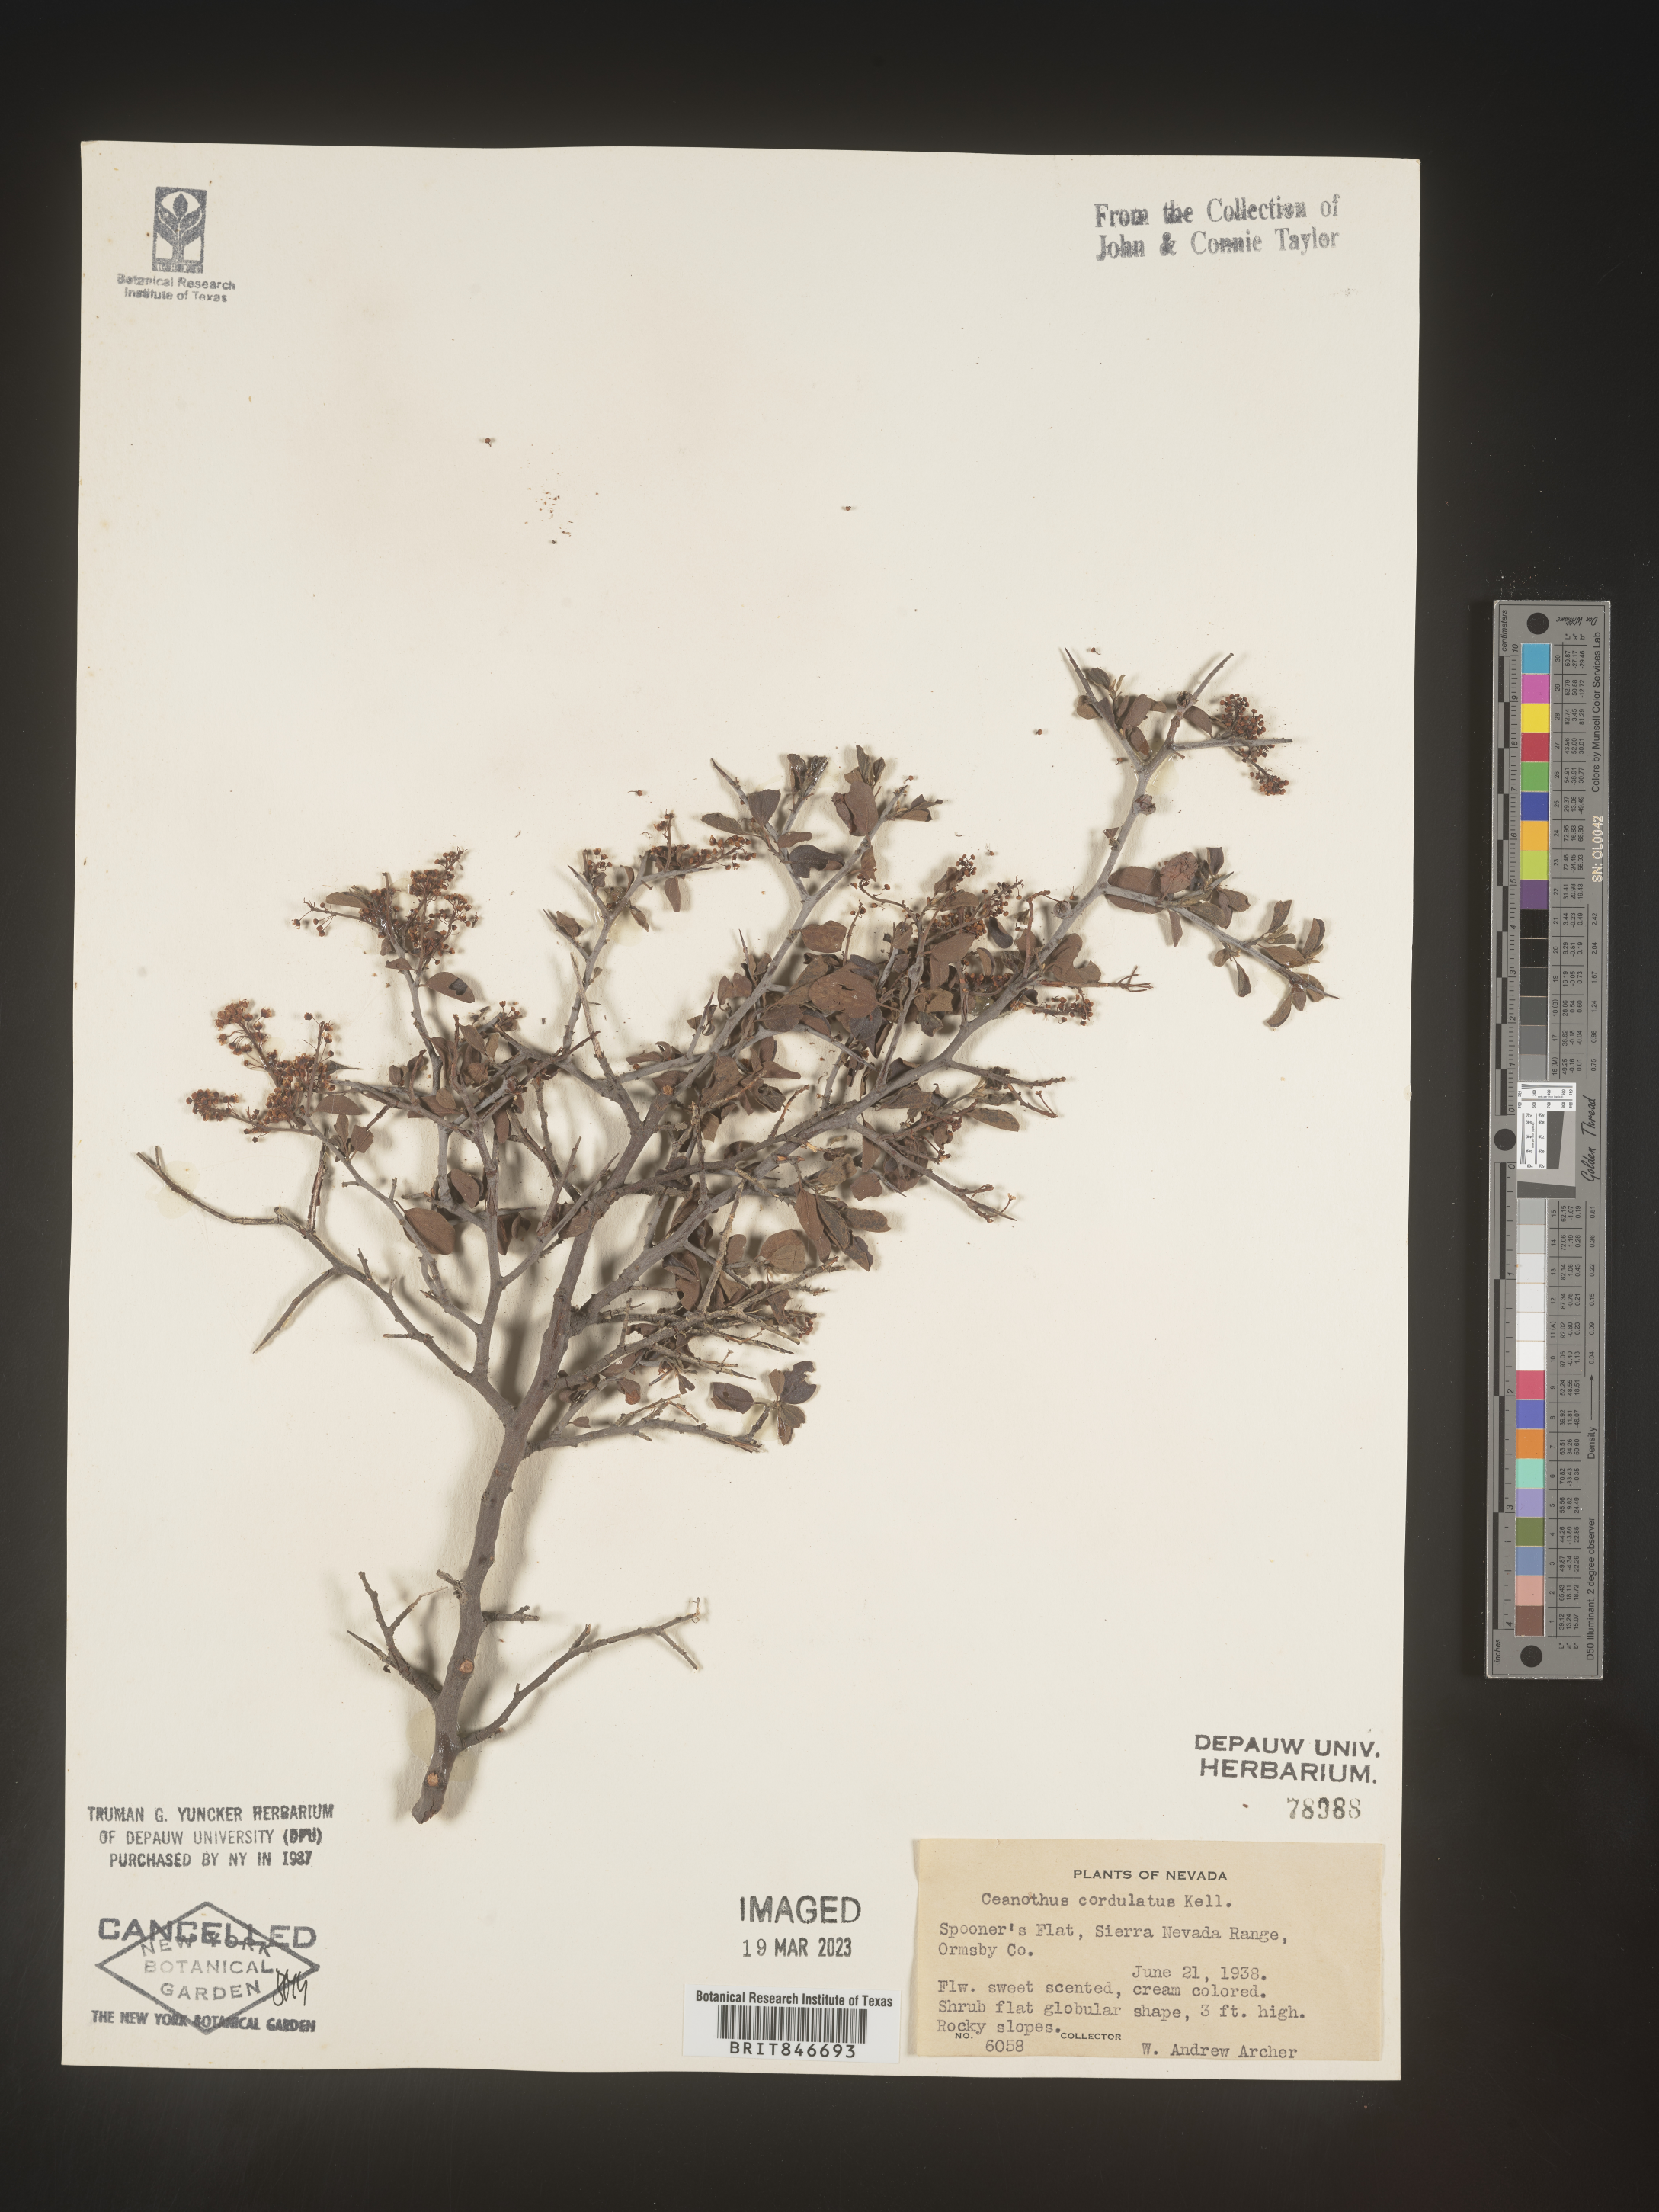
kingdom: Plantae
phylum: Tracheophyta
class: Magnoliopsida
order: Rosales
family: Rhamnaceae
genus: Ceanothus
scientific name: Ceanothus
